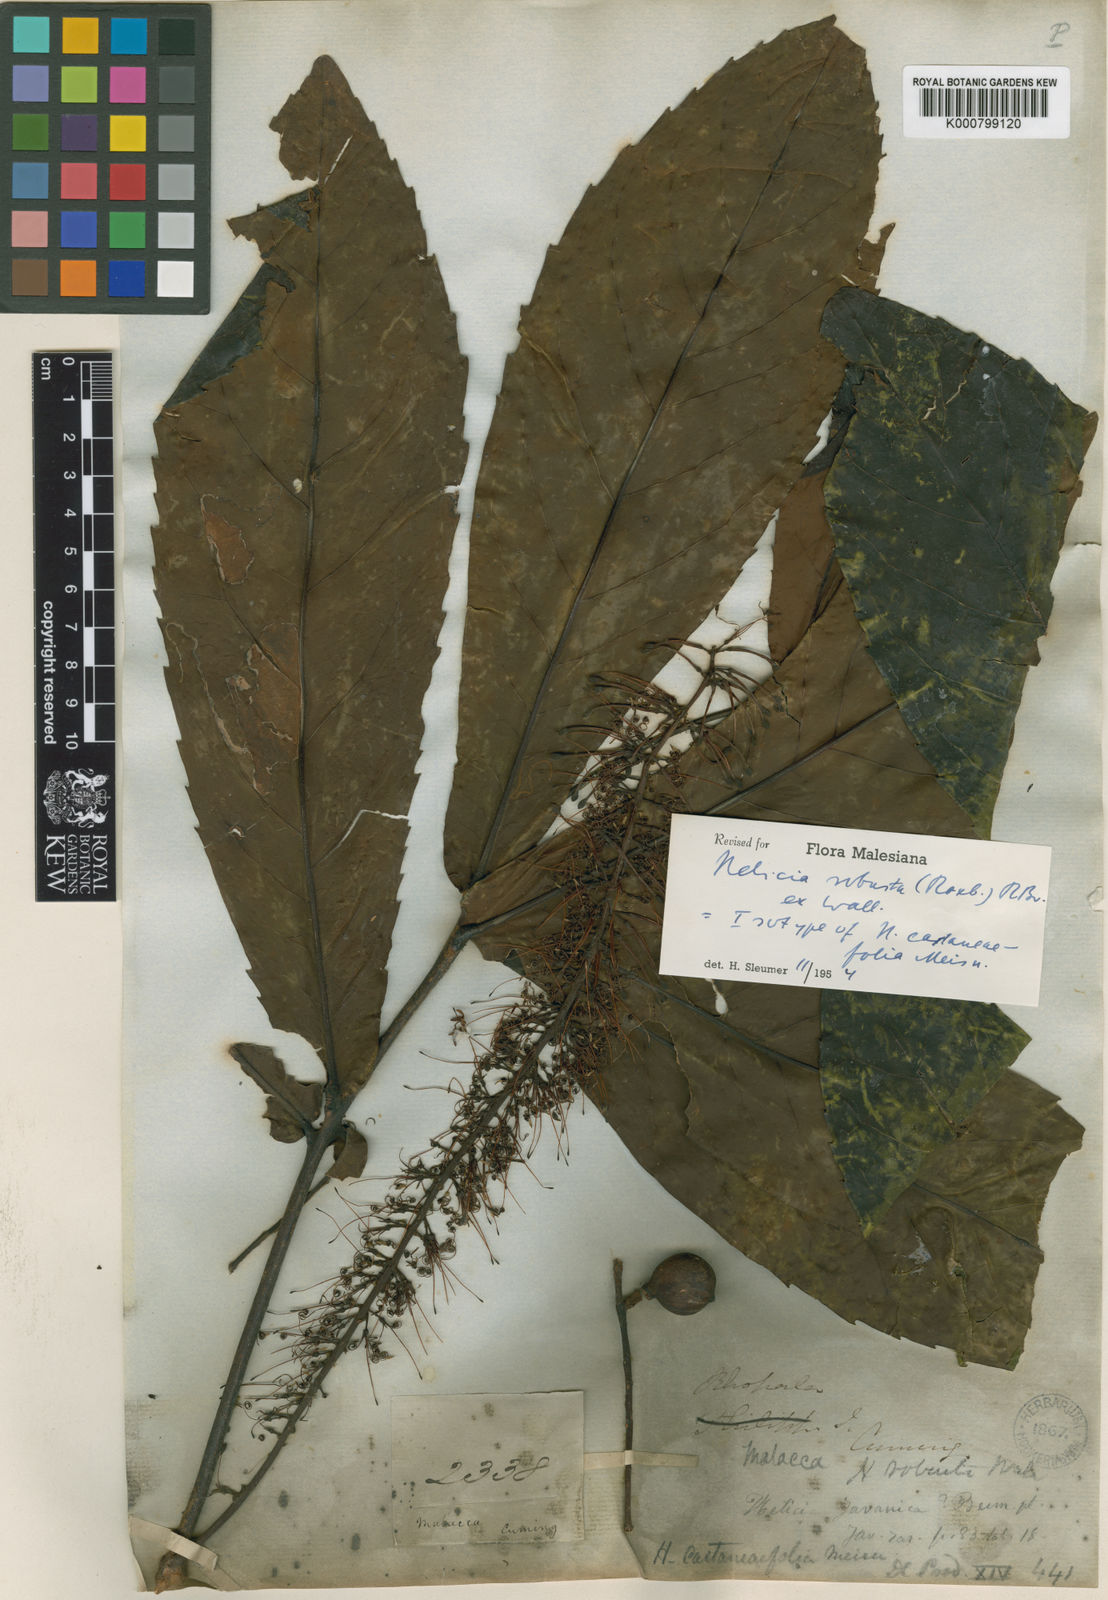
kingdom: Plantae
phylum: Tracheophyta
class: Magnoliopsida
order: Proteales
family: Proteaceae
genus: Helicia
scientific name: Helicia
